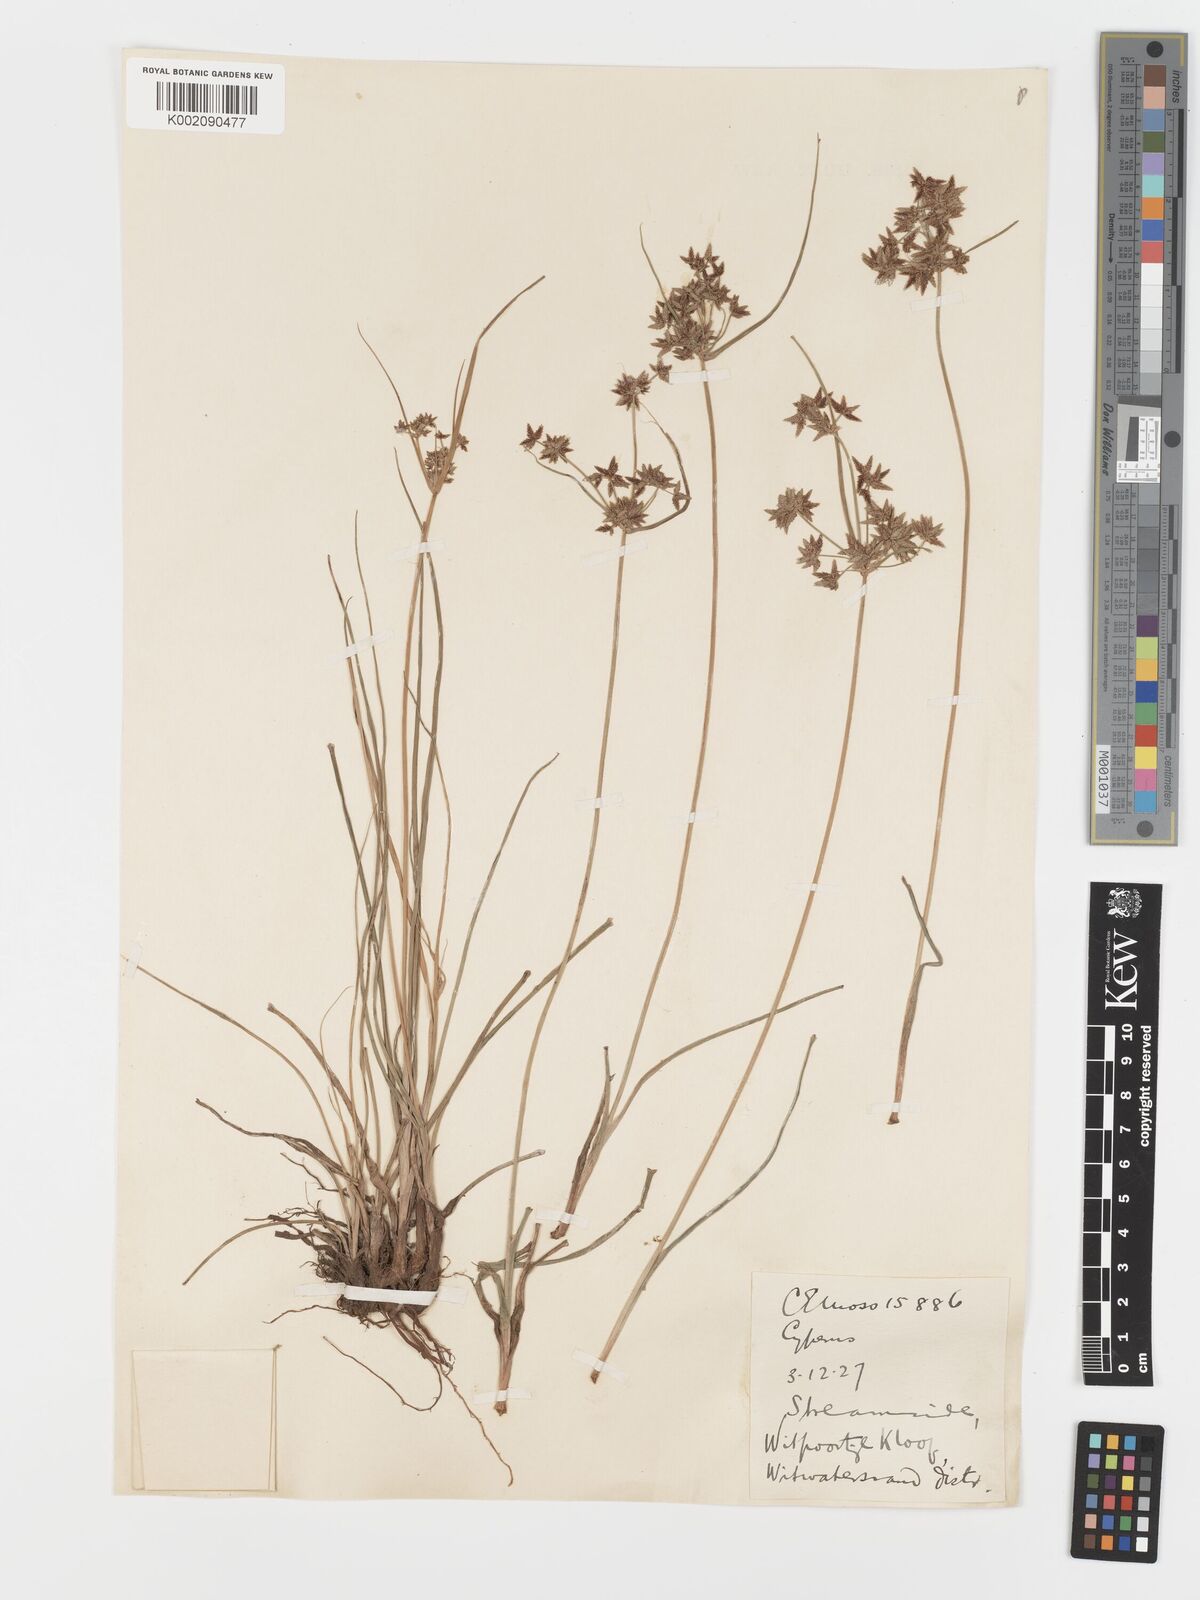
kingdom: Plantae
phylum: Tracheophyta
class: Liliopsida
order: Poales
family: Cyperaceae
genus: Cyperus
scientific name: Cyperus sphaerospermus
